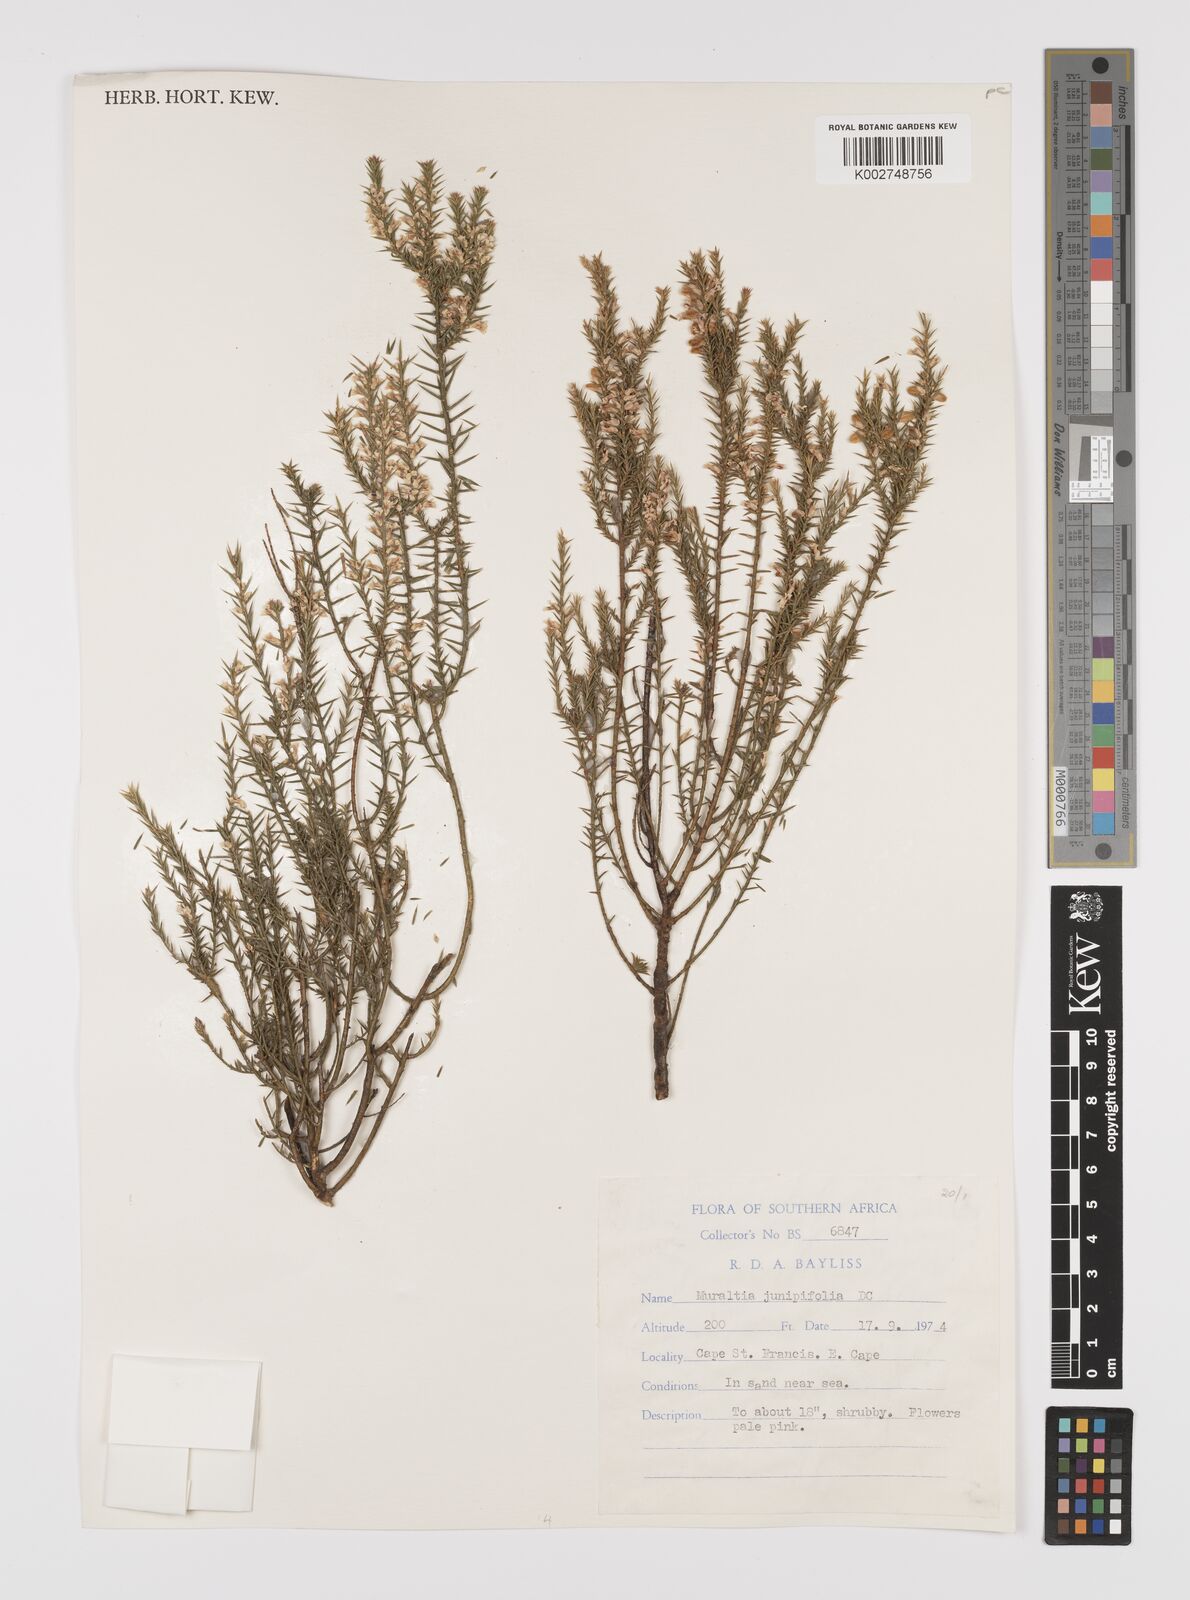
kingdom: Plantae
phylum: Tracheophyta
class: Magnoliopsida
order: Fabales
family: Polygalaceae
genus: Muraltia
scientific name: Muraltia juniperifolia
